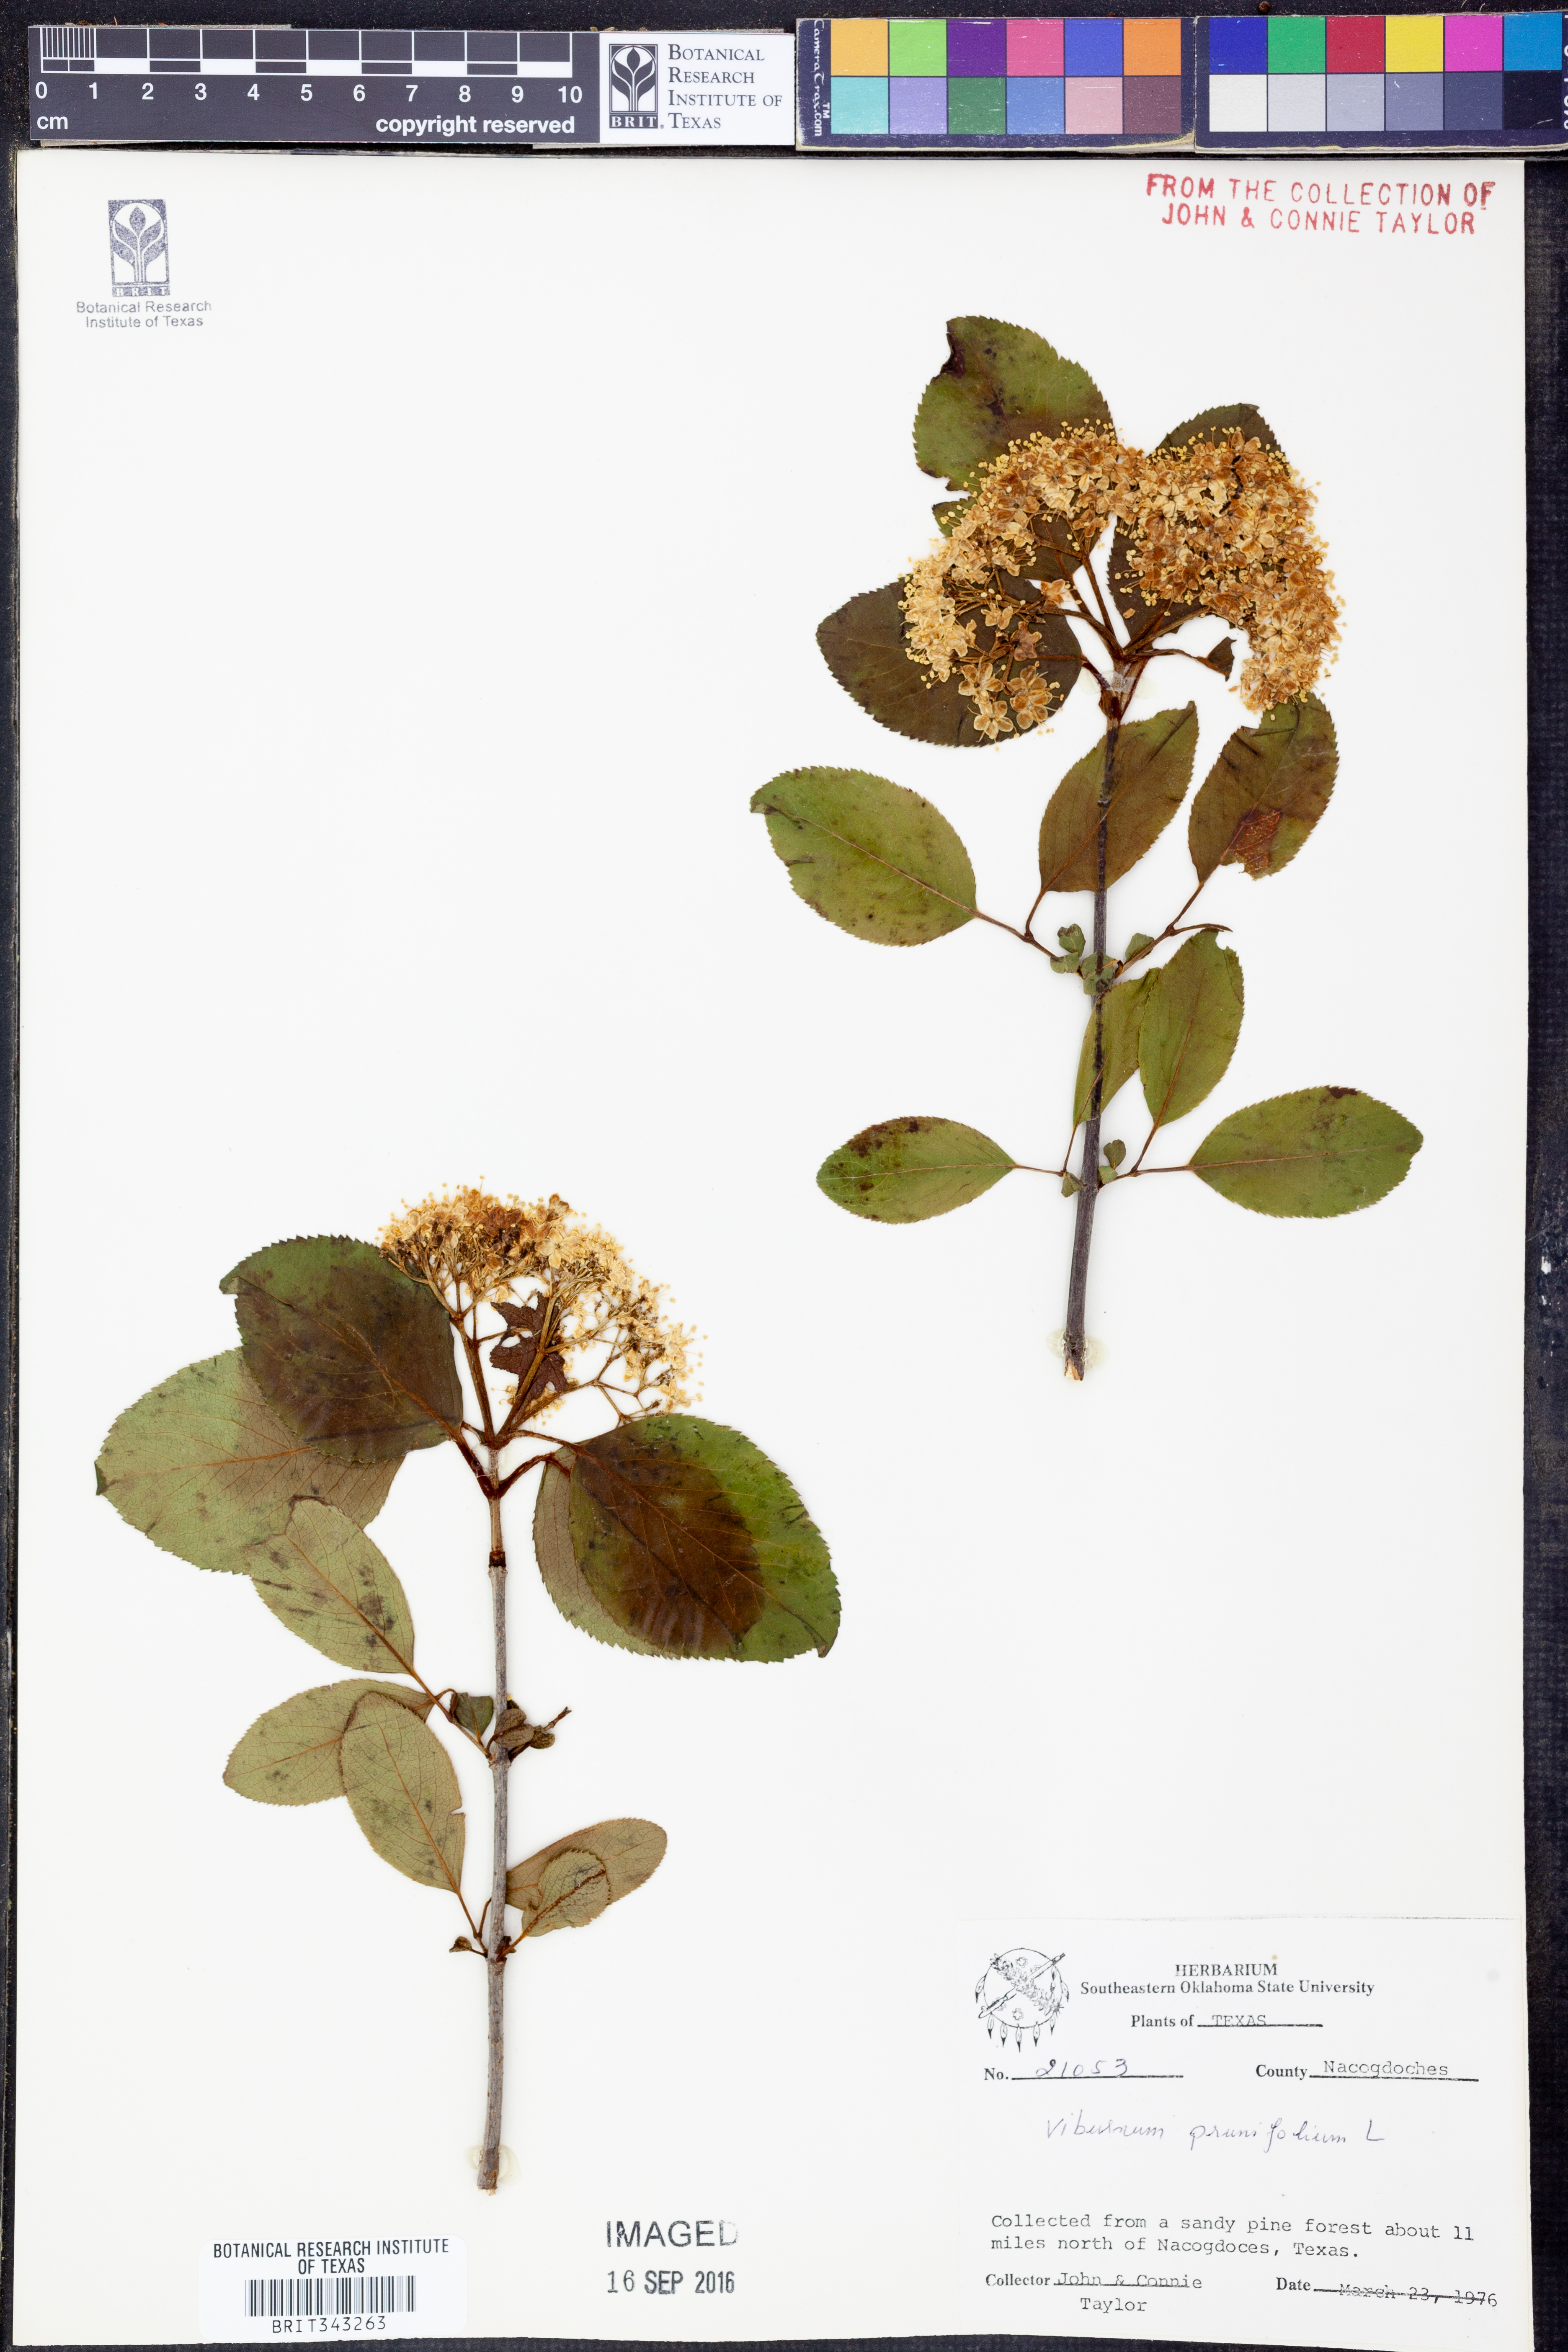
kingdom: Plantae
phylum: Tracheophyta
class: Magnoliopsida
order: Dipsacales
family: Viburnaceae
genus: Viburnum
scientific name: Viburnum prunifolium
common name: Black haw
